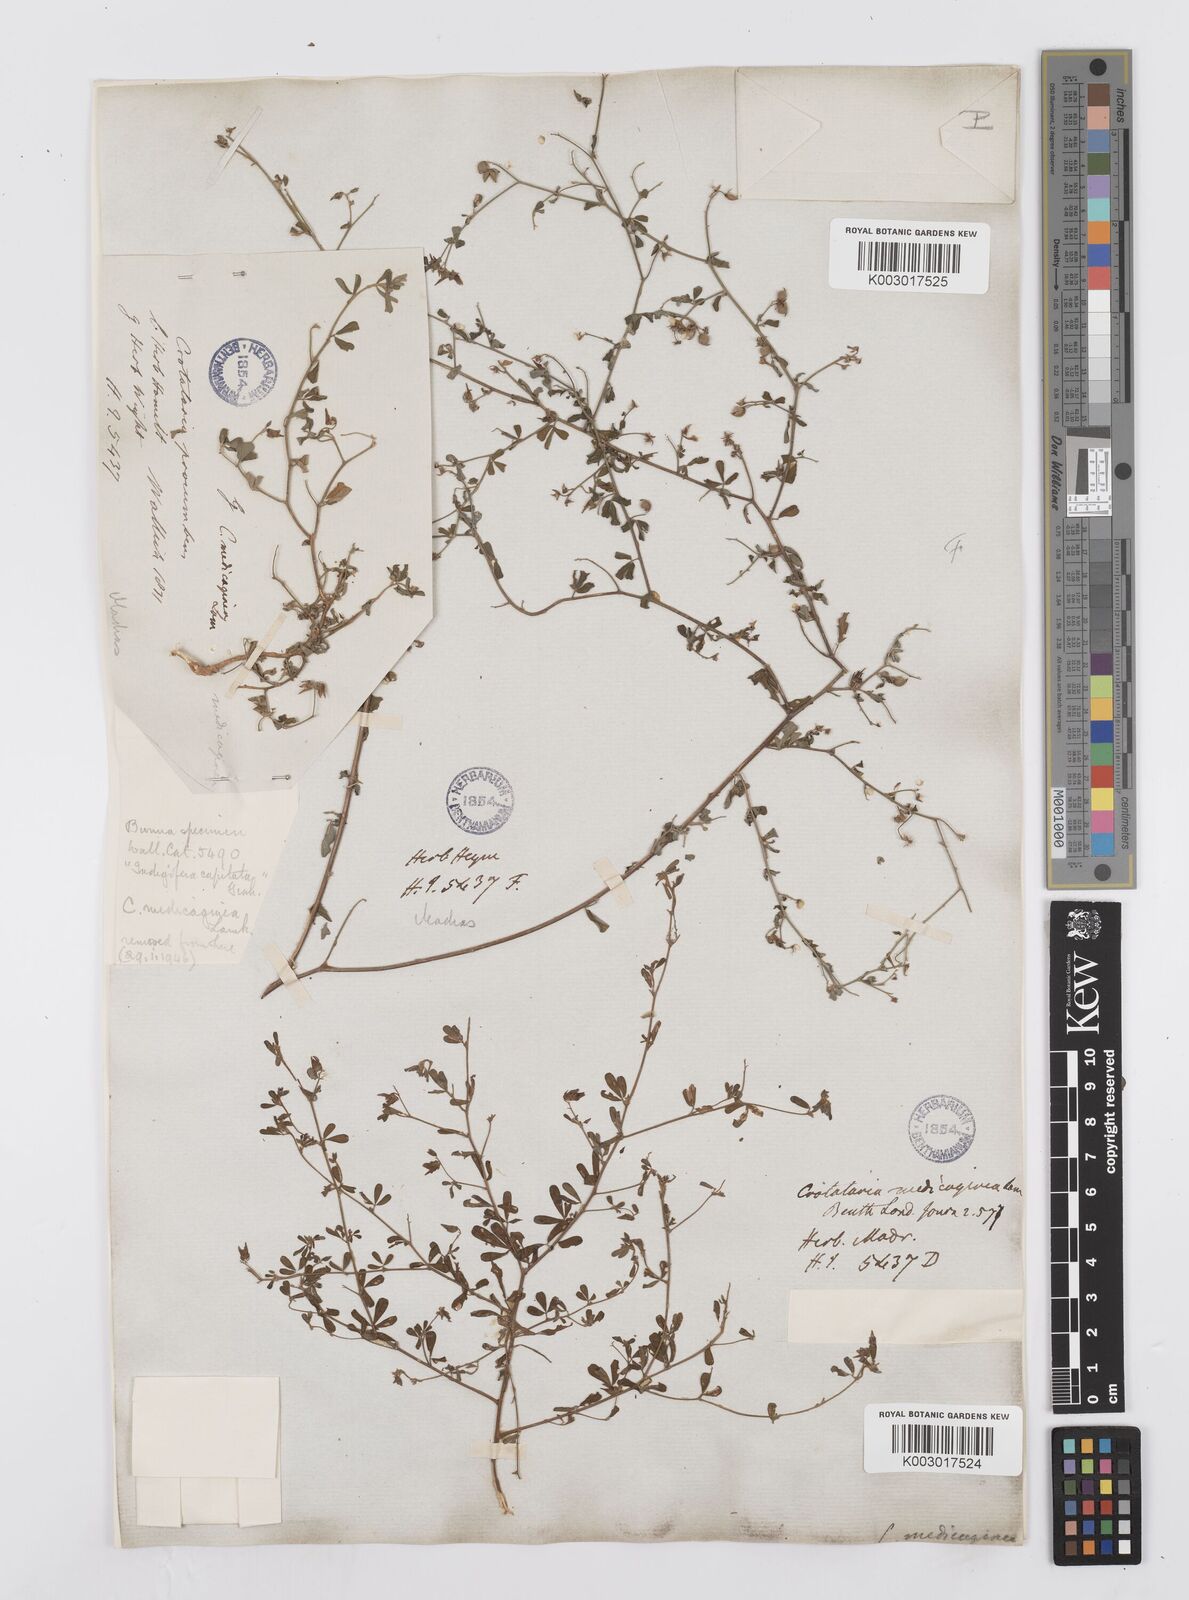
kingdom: Plantae
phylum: Tracheophyta
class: Magnoliopsida
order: Fabales
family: Fabaceae
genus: Crotalaria
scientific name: Crotalaria medicaginea
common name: Trefoil rattlepod
